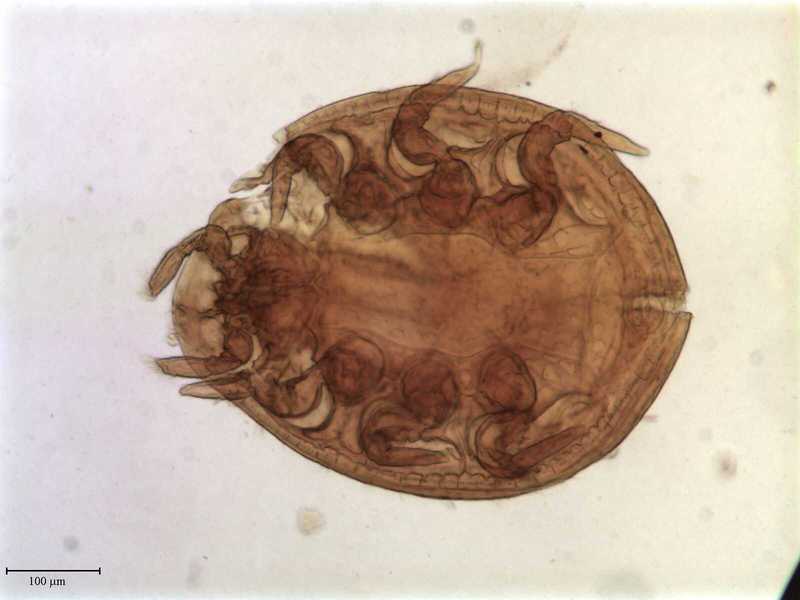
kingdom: Animalia
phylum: Arthropoda
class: Arachnida
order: Mesostigmata
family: Uropodidae
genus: Uropoda
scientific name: Uropoda
